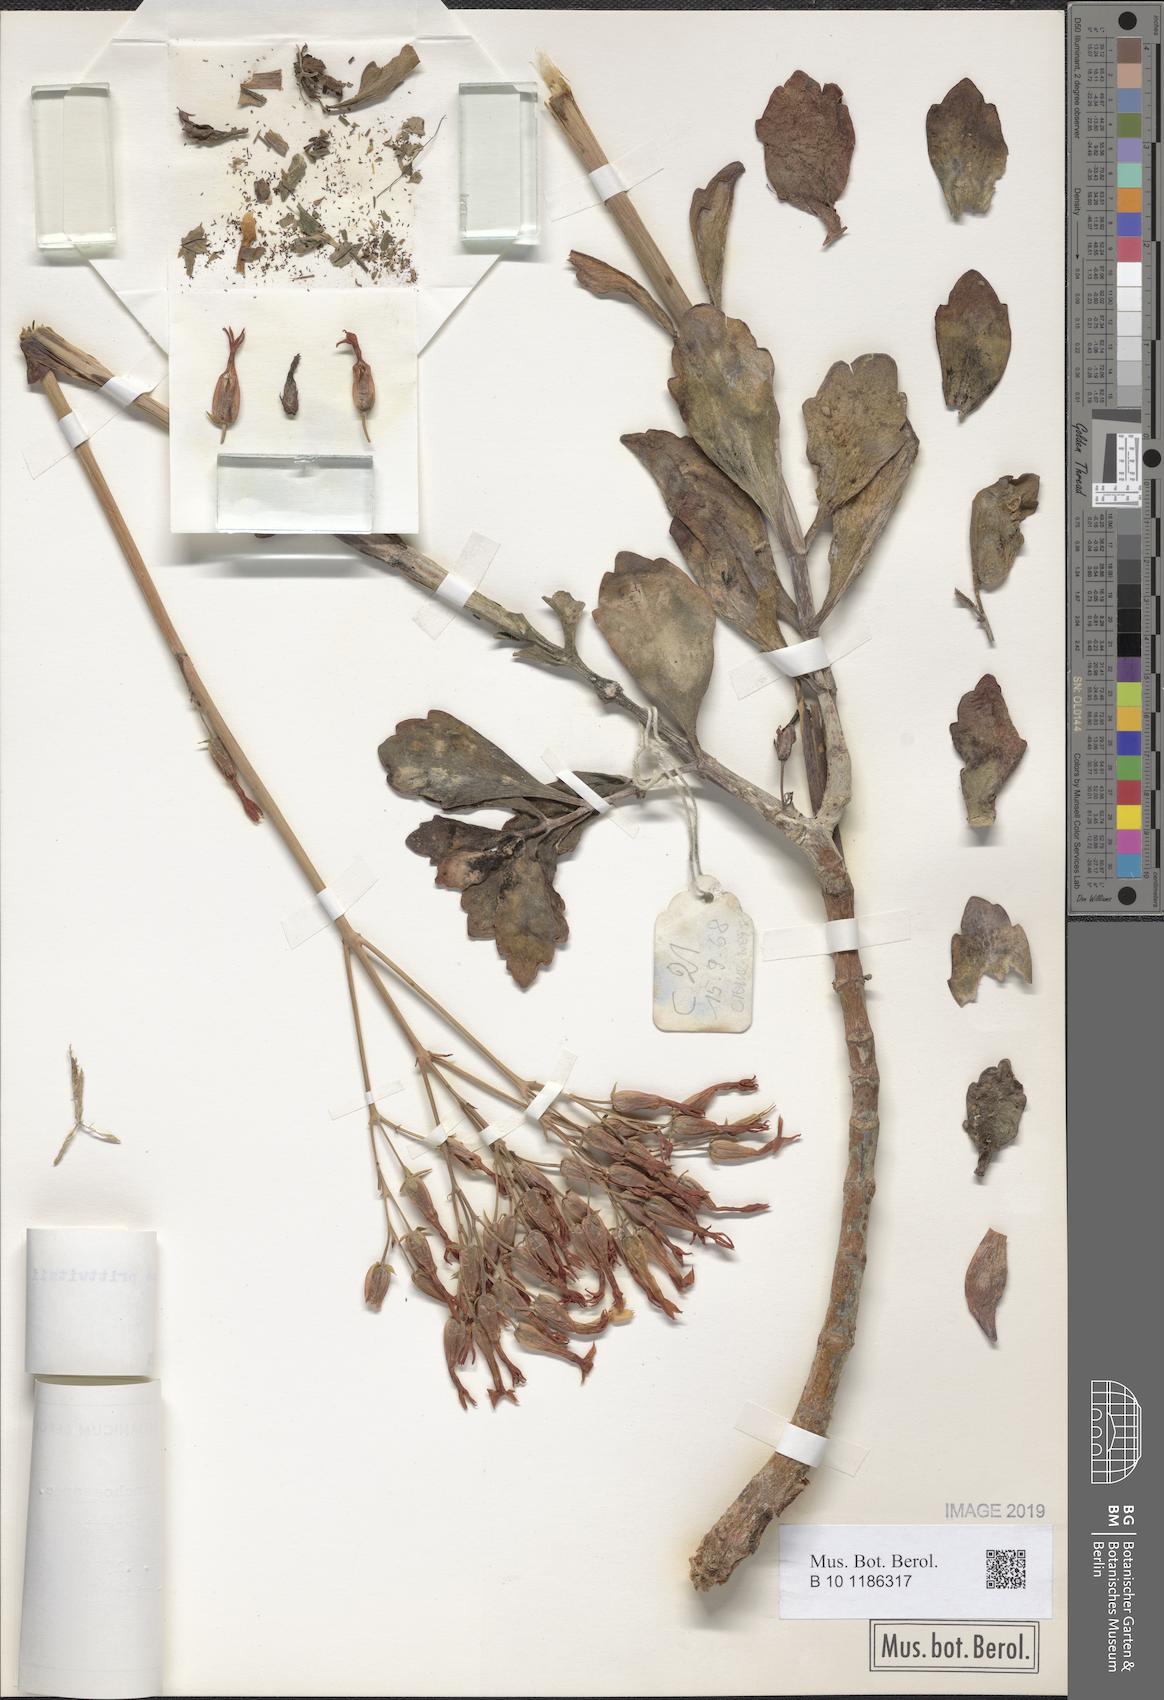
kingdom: Plantae
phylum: Tracheophyta
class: Magnoliopsida
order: Saxifragales
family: Crassulaceae
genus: Kalanchoe
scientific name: Kalanchoe prittwitzii
